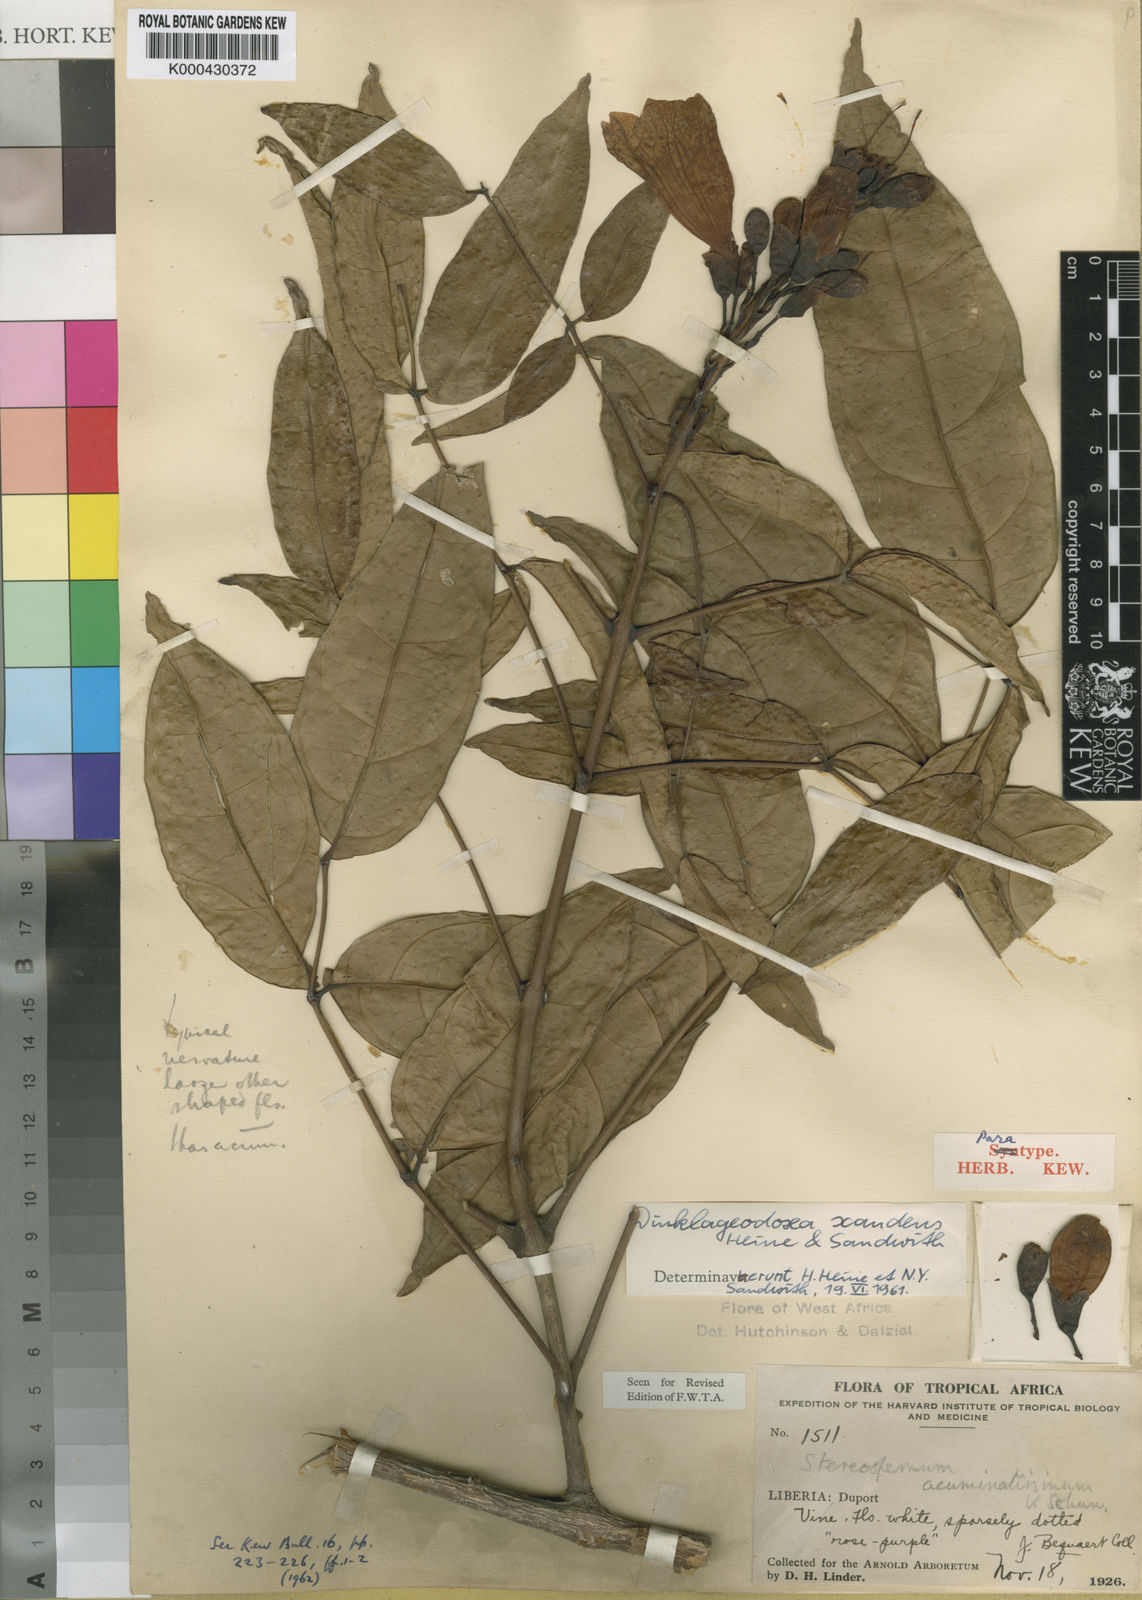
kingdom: Plantae
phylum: Tracheophyta
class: Magnoliopsida
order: Lamiales
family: Bignoniaceae
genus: Dinklageodoxa
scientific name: Dinklageodoxa scandens
